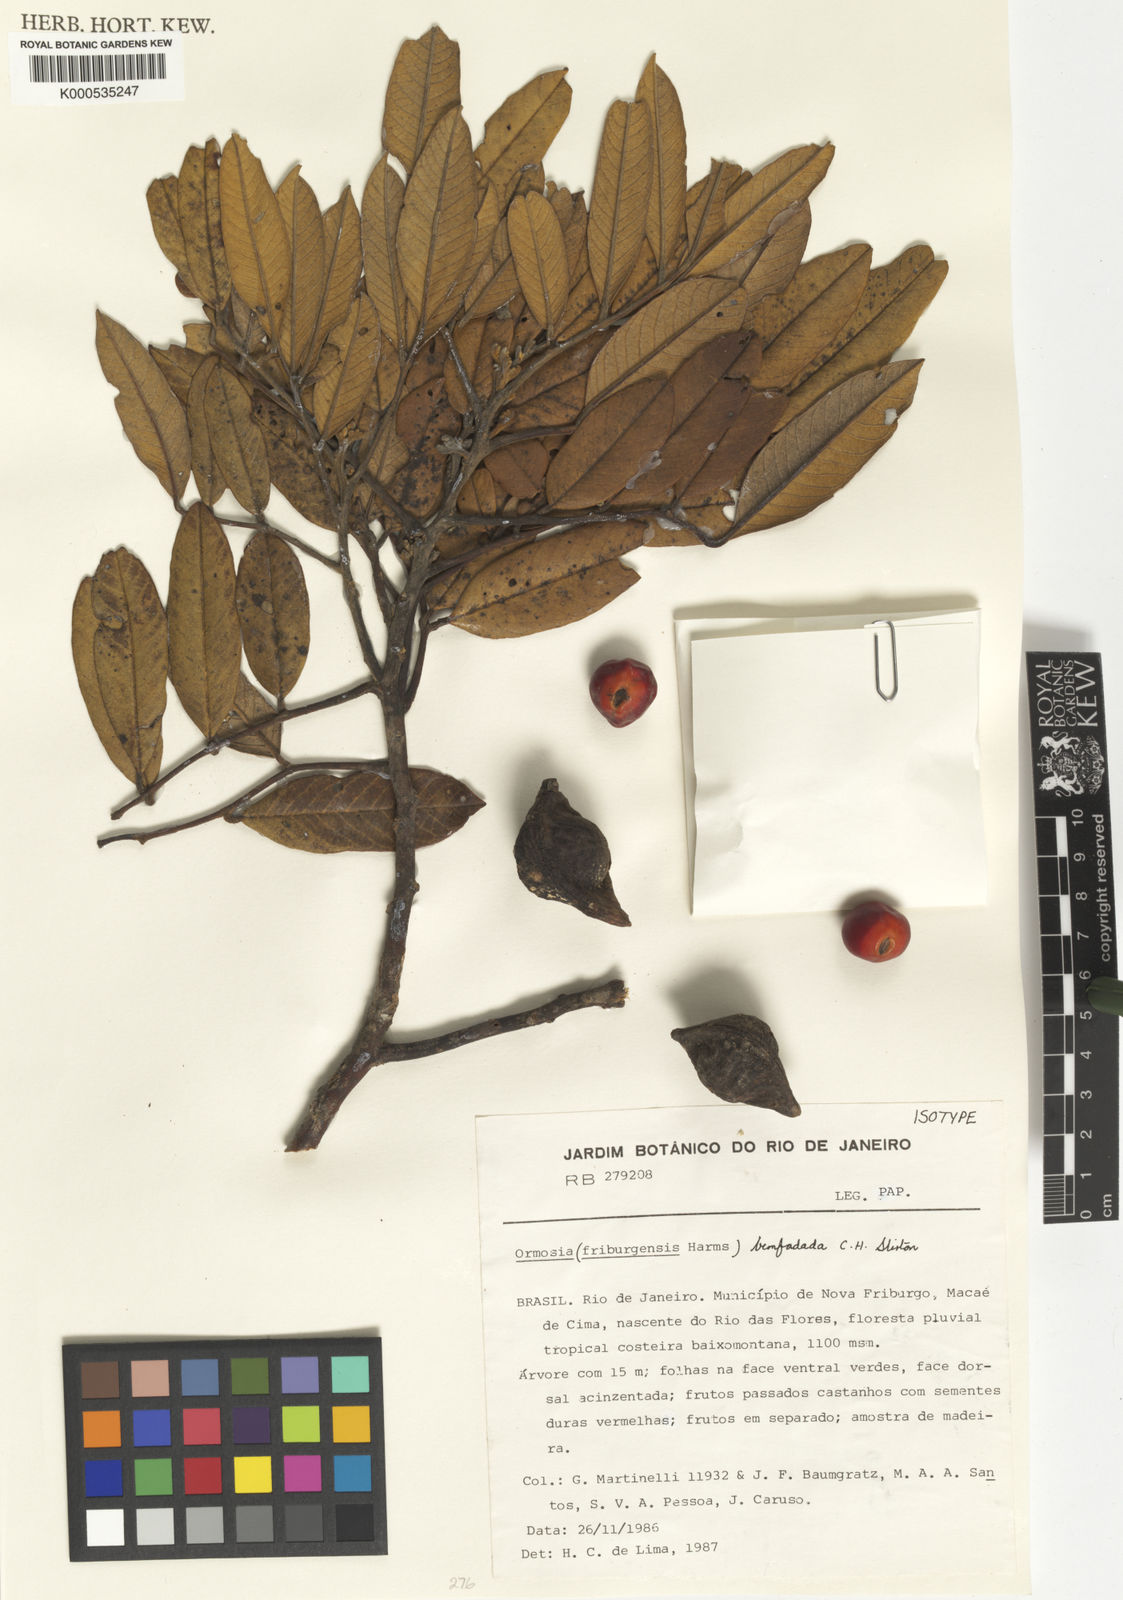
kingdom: Plantae
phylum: Tracheophyta
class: Magnoliopsida
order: Fabales
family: Fabaceae
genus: Ormosia
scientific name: Ormosia
